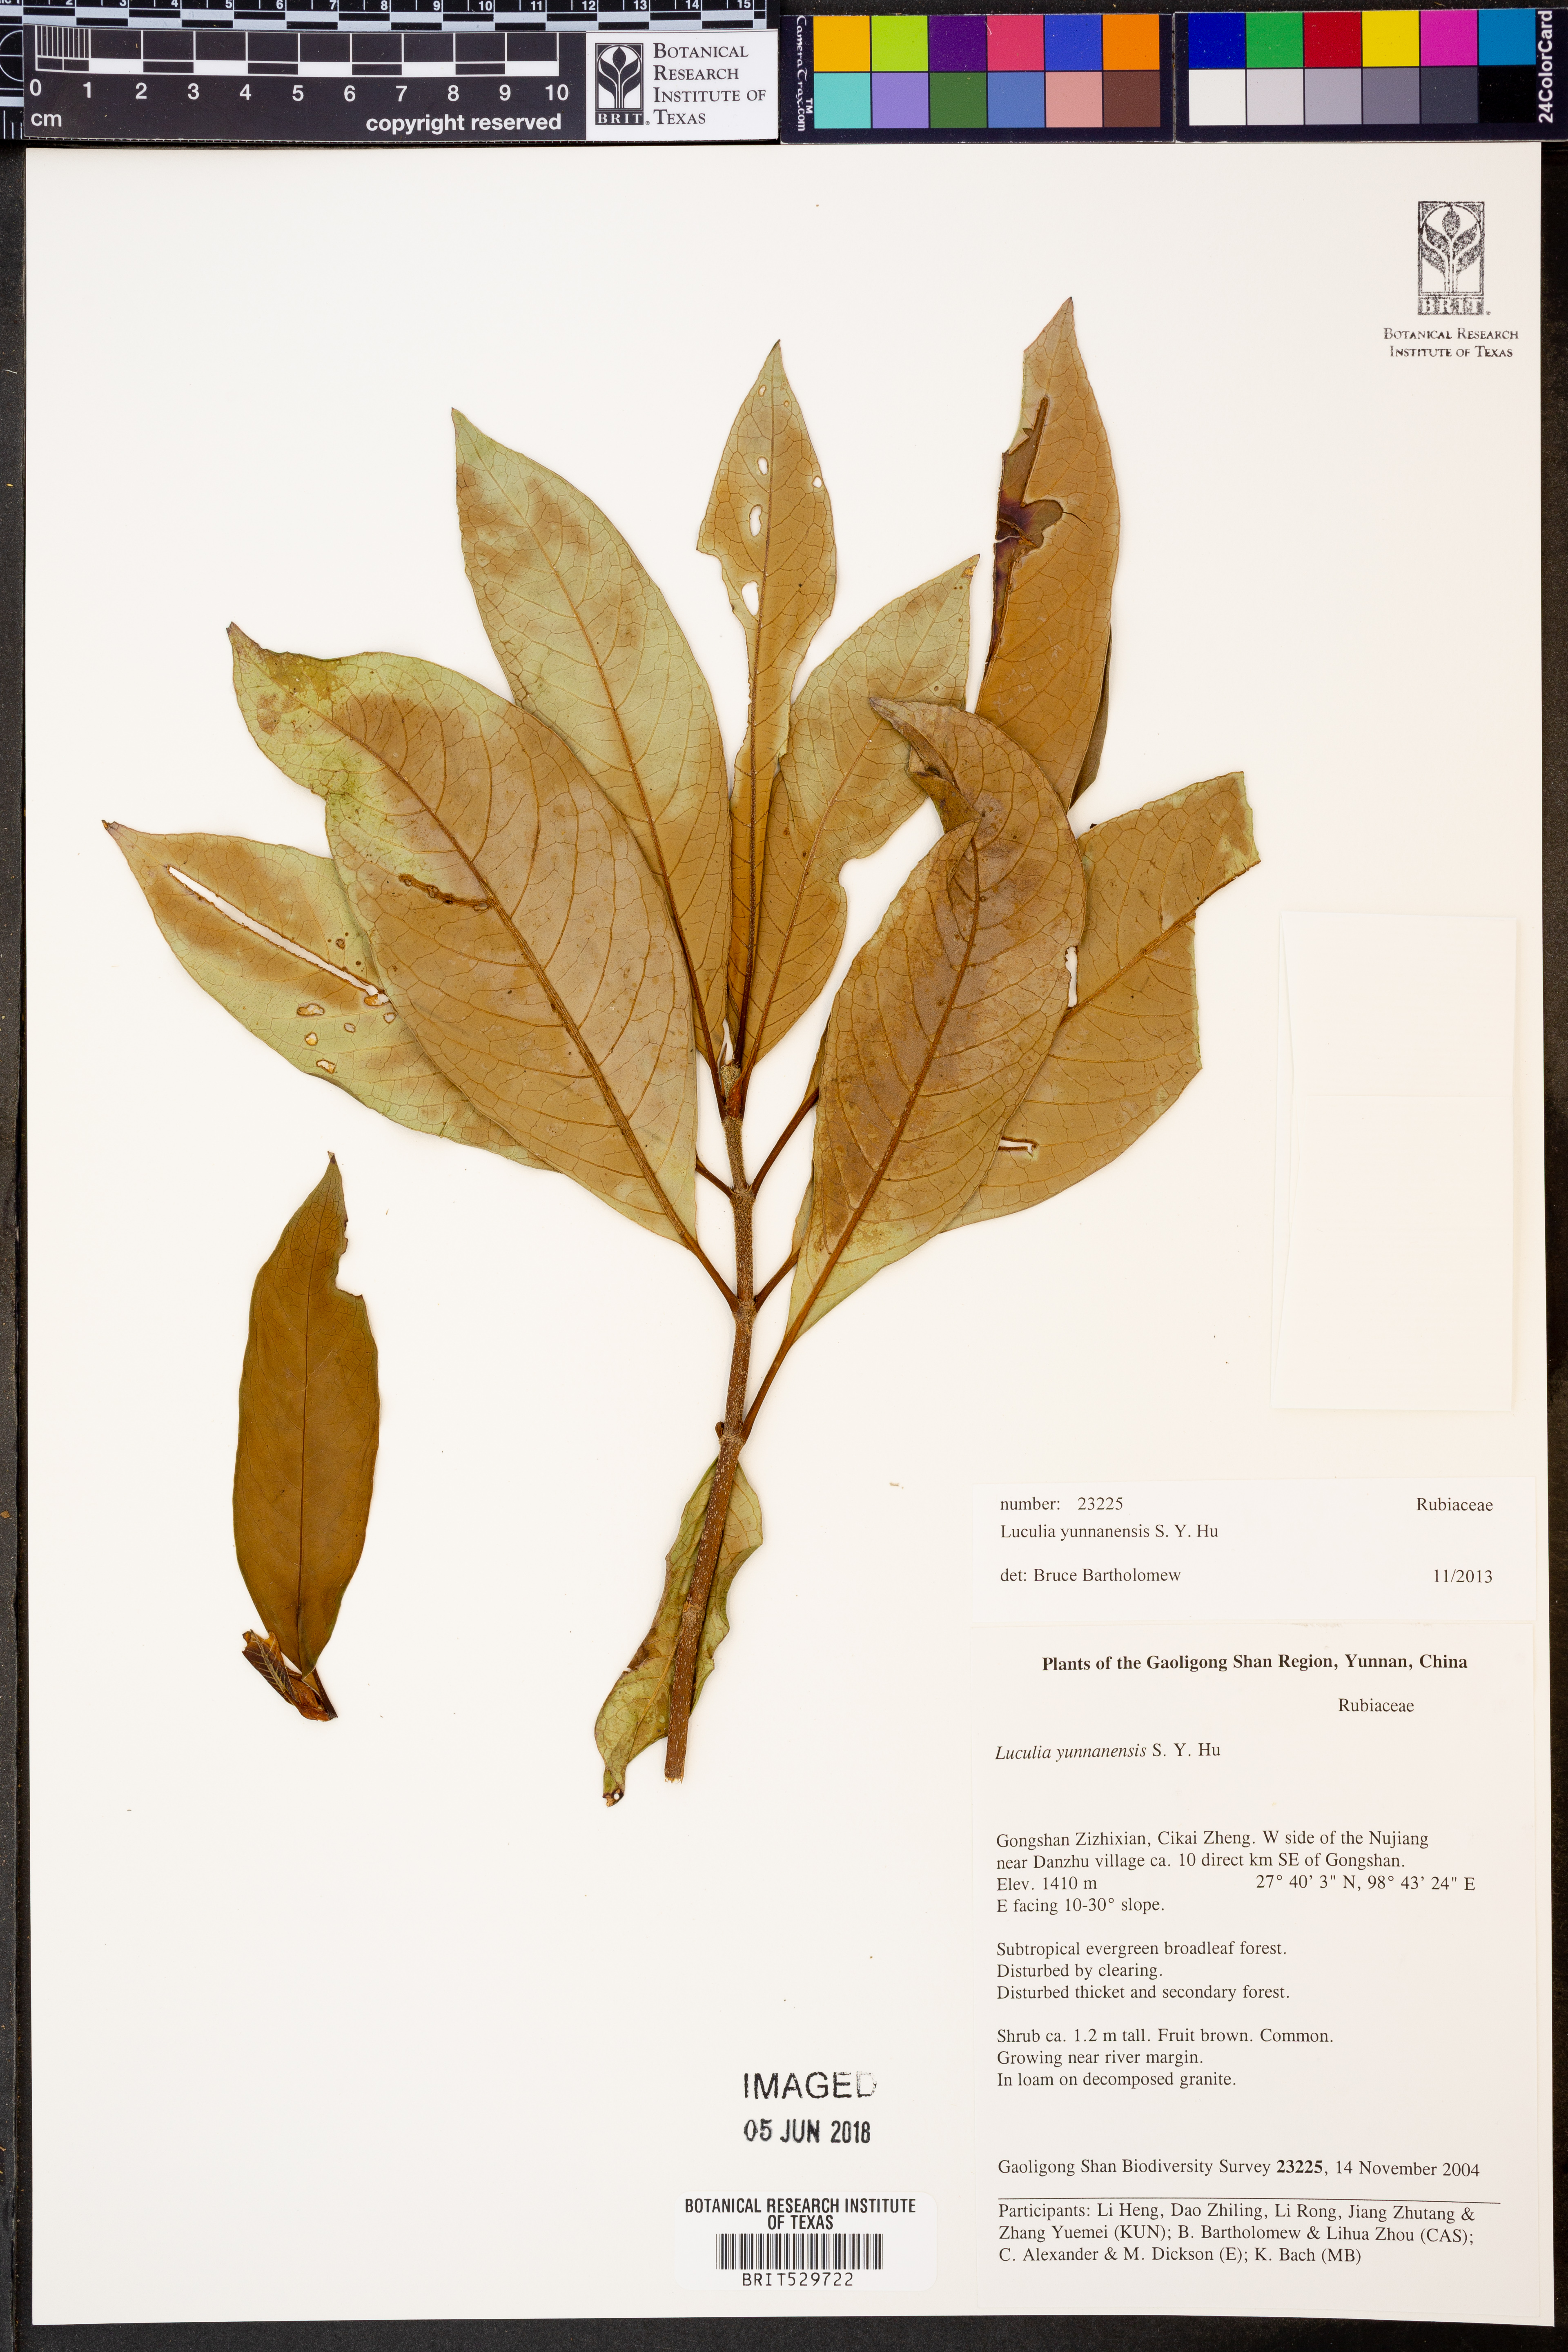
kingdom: Plantae
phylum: Tracheophyta
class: Magnoliopsida
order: Gentianales
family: Rubiaceae
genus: Luculia
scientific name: Luculia yunnanensis
